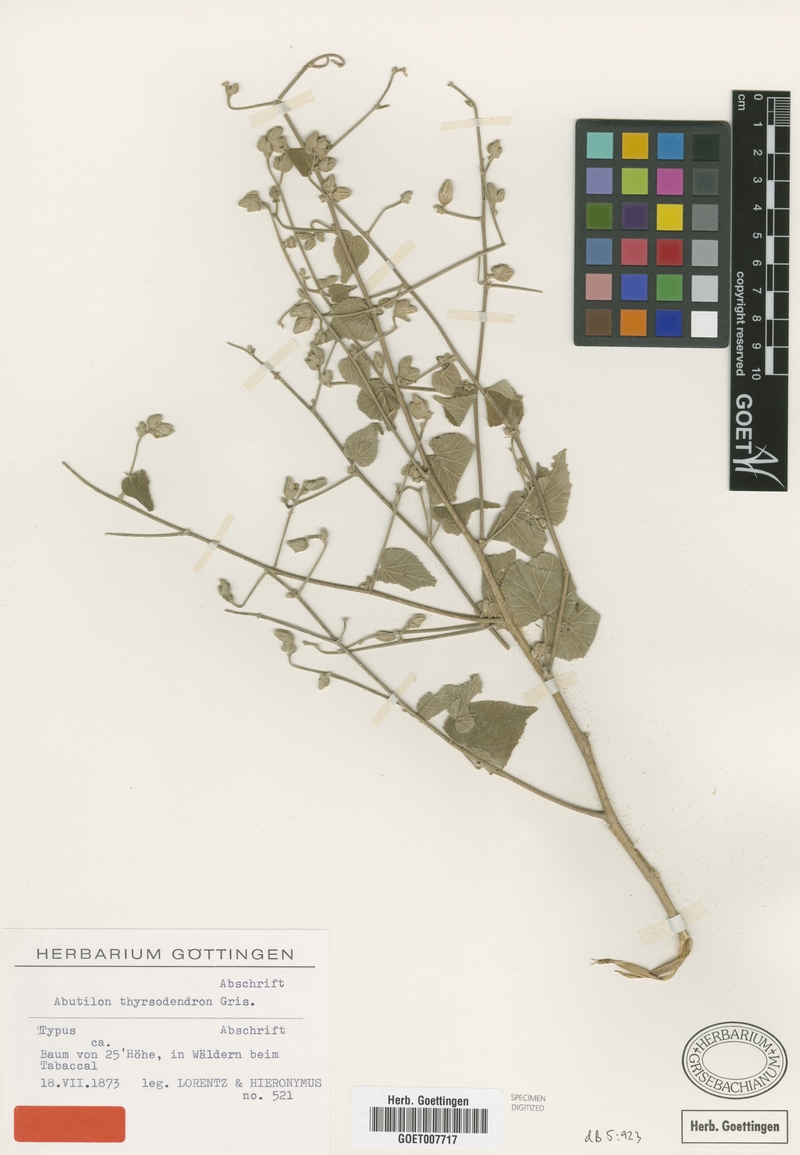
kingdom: Plantae
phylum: Tracheophyta
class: Magnoliopsida
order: Malvales
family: Malvaceae
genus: Abutilon
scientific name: Abutilon thyrsodendron
